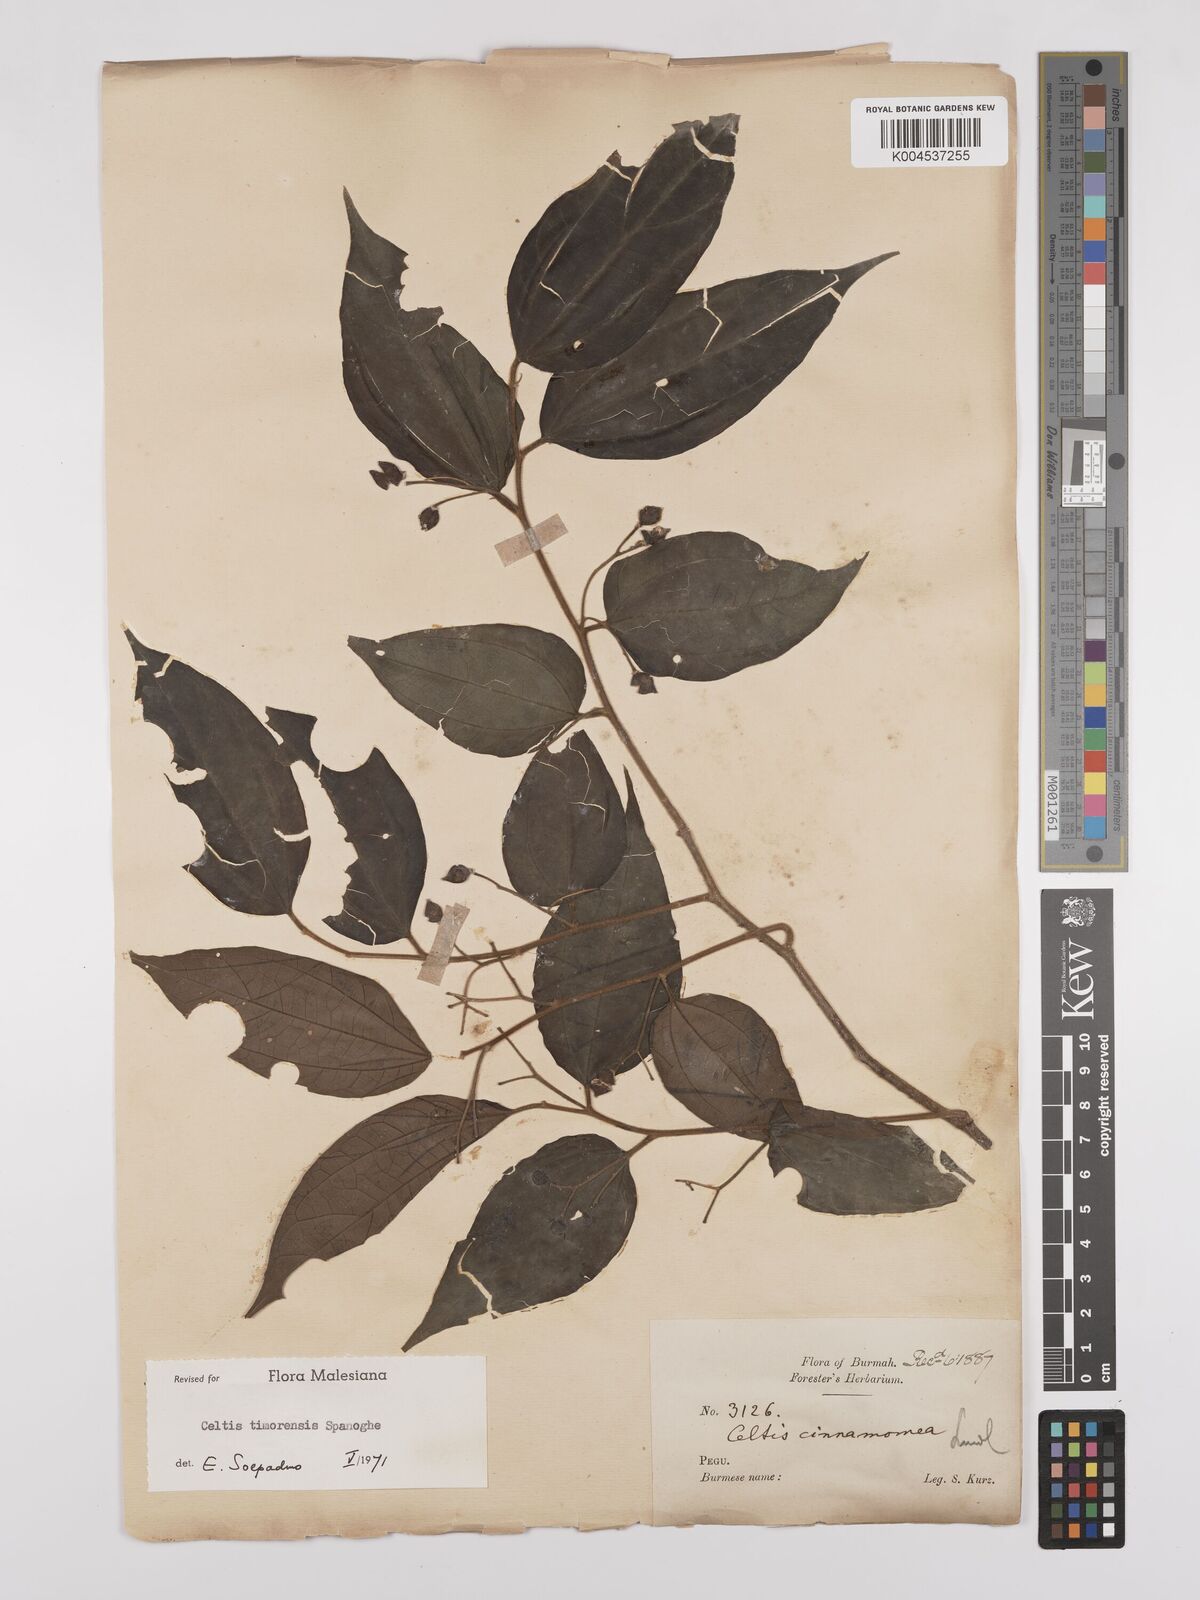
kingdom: Plantae
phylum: Tracheophyta
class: Magnoliopsida
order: Rosales
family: Cannabaceae
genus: Celtis
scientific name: Celtis
